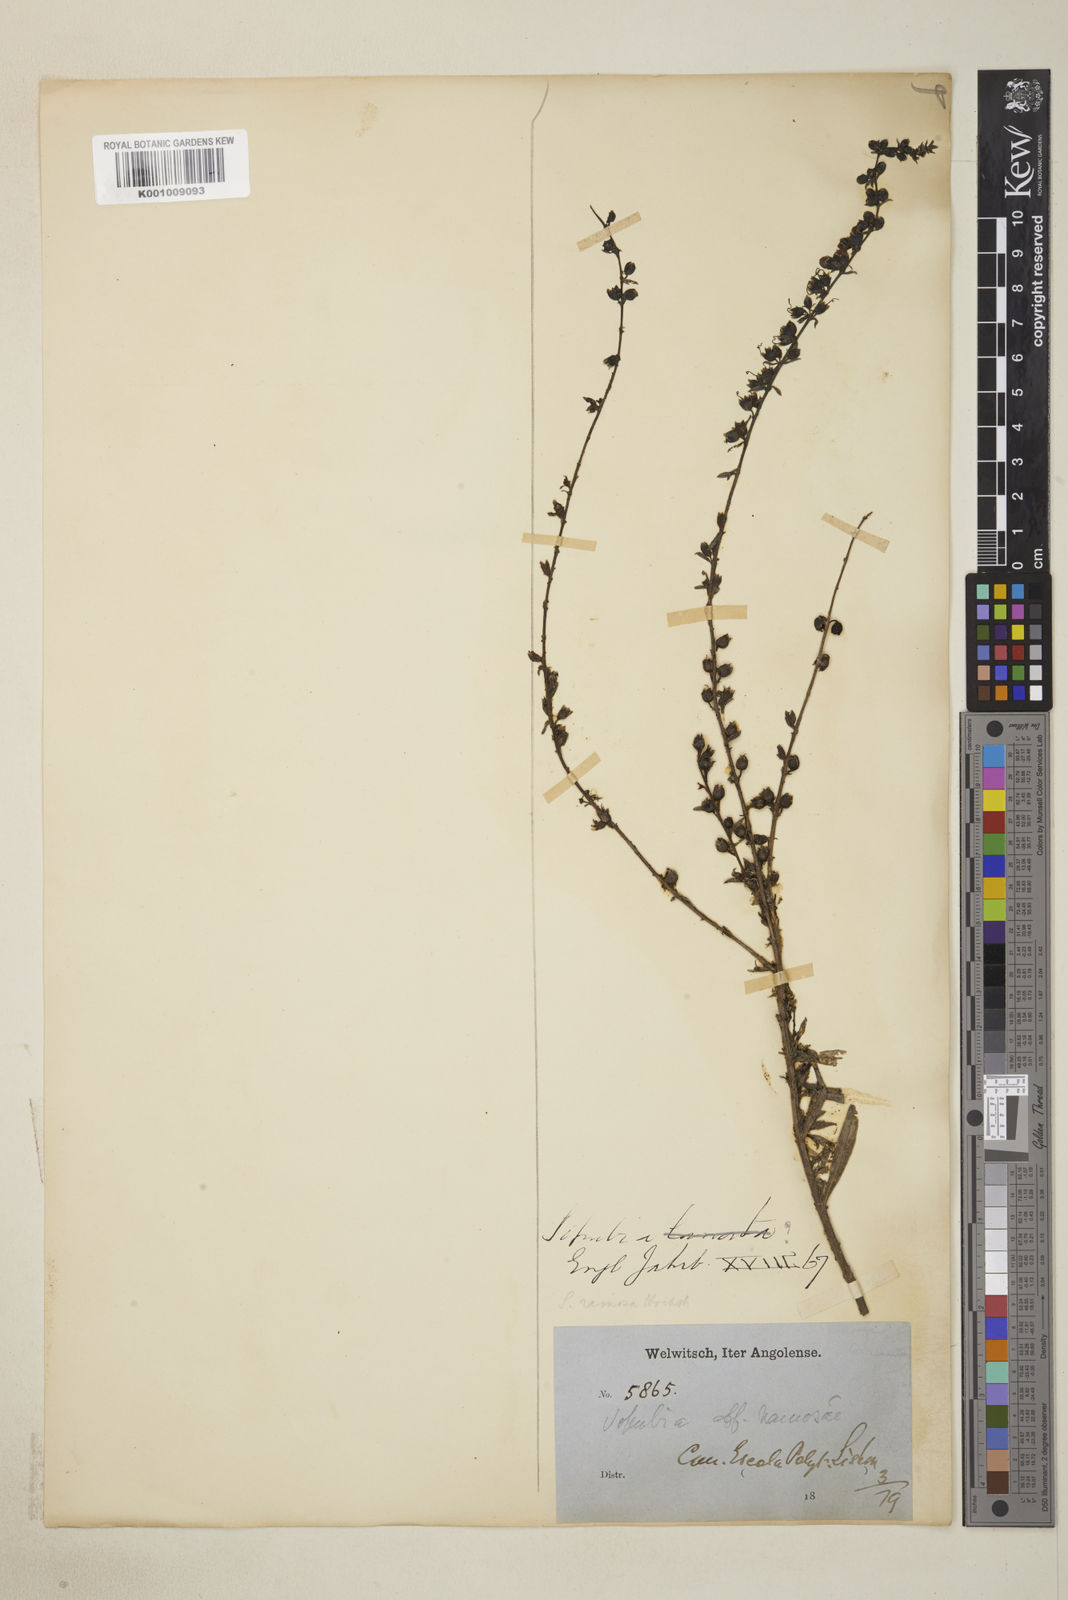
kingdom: Plantae
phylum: Tracheophyta
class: Magnoliopsida
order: Lamiales
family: Orobanchaceae
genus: Sopubia
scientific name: Sopubia ramosa
